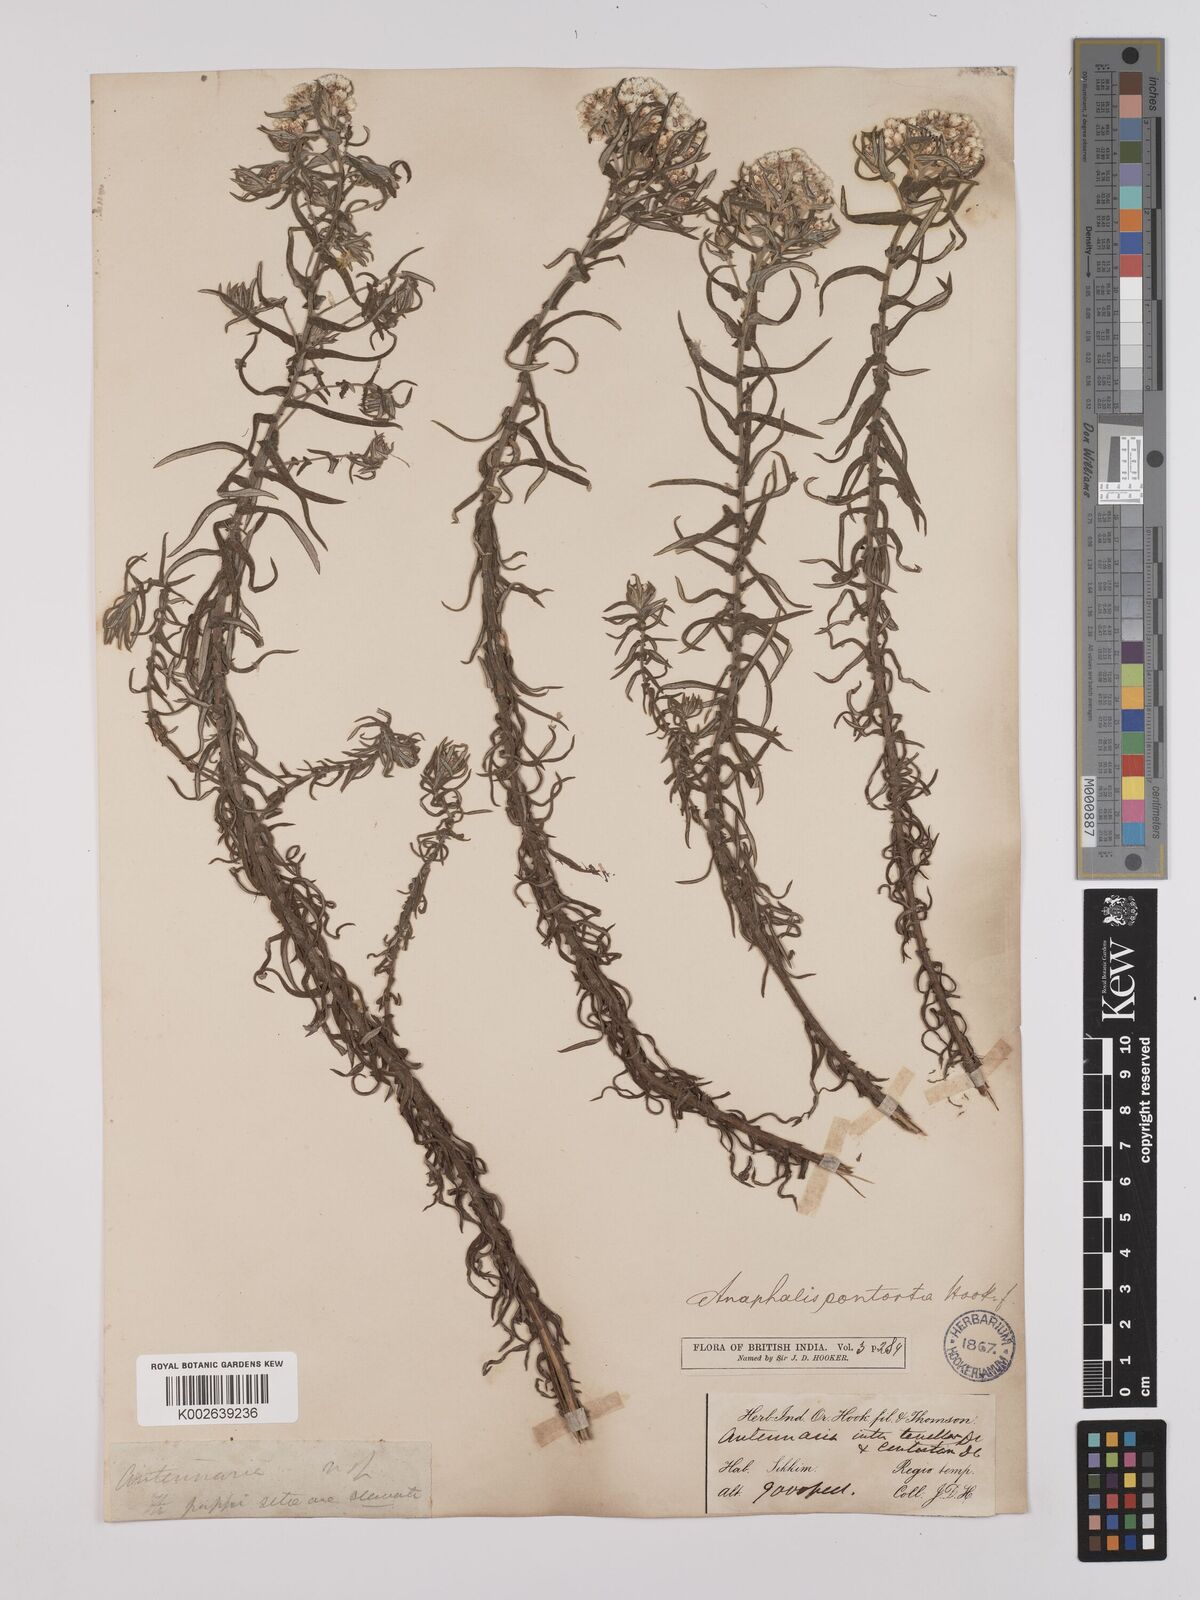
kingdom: Plantae
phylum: Tracheophyta
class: Magnoliopsida
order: Asterales
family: Asteraceae
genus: Anaphalis
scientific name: Anaphalis contorta
